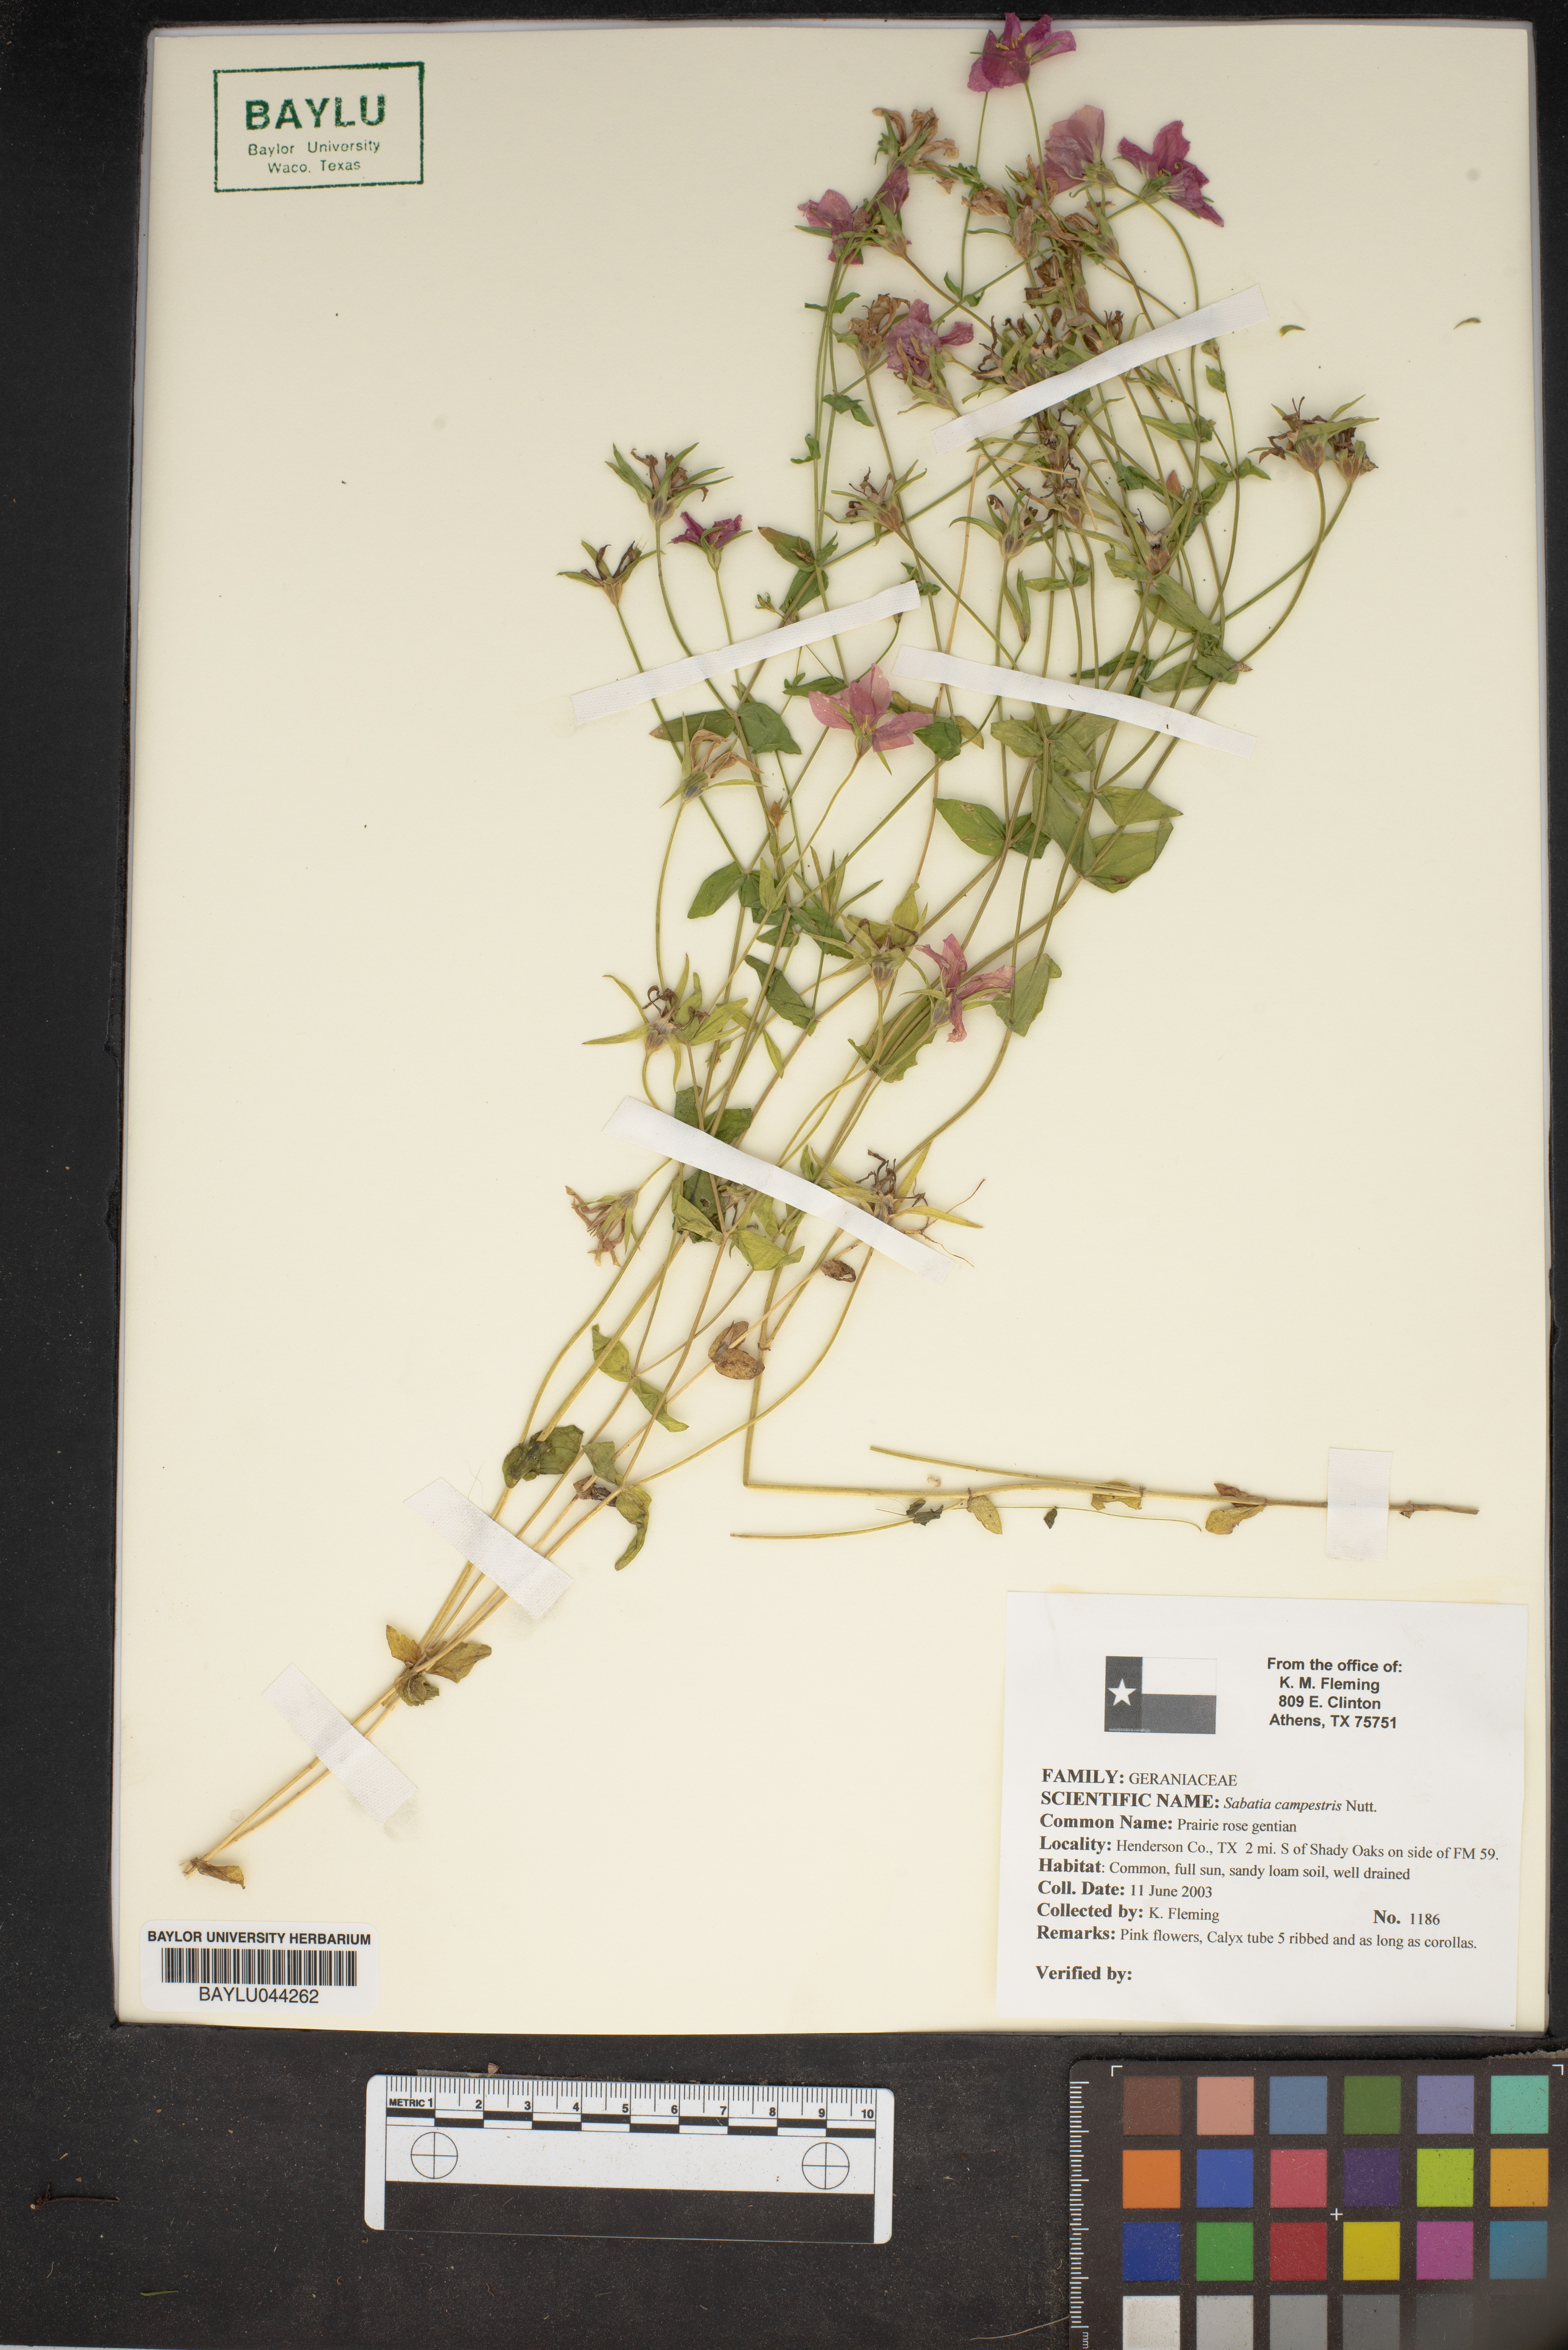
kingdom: Plantae
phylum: Tracheophyta
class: Magnoliopsida
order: Gentianales
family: Gentianaceae
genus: Sabatia
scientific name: Sabatia campestris
